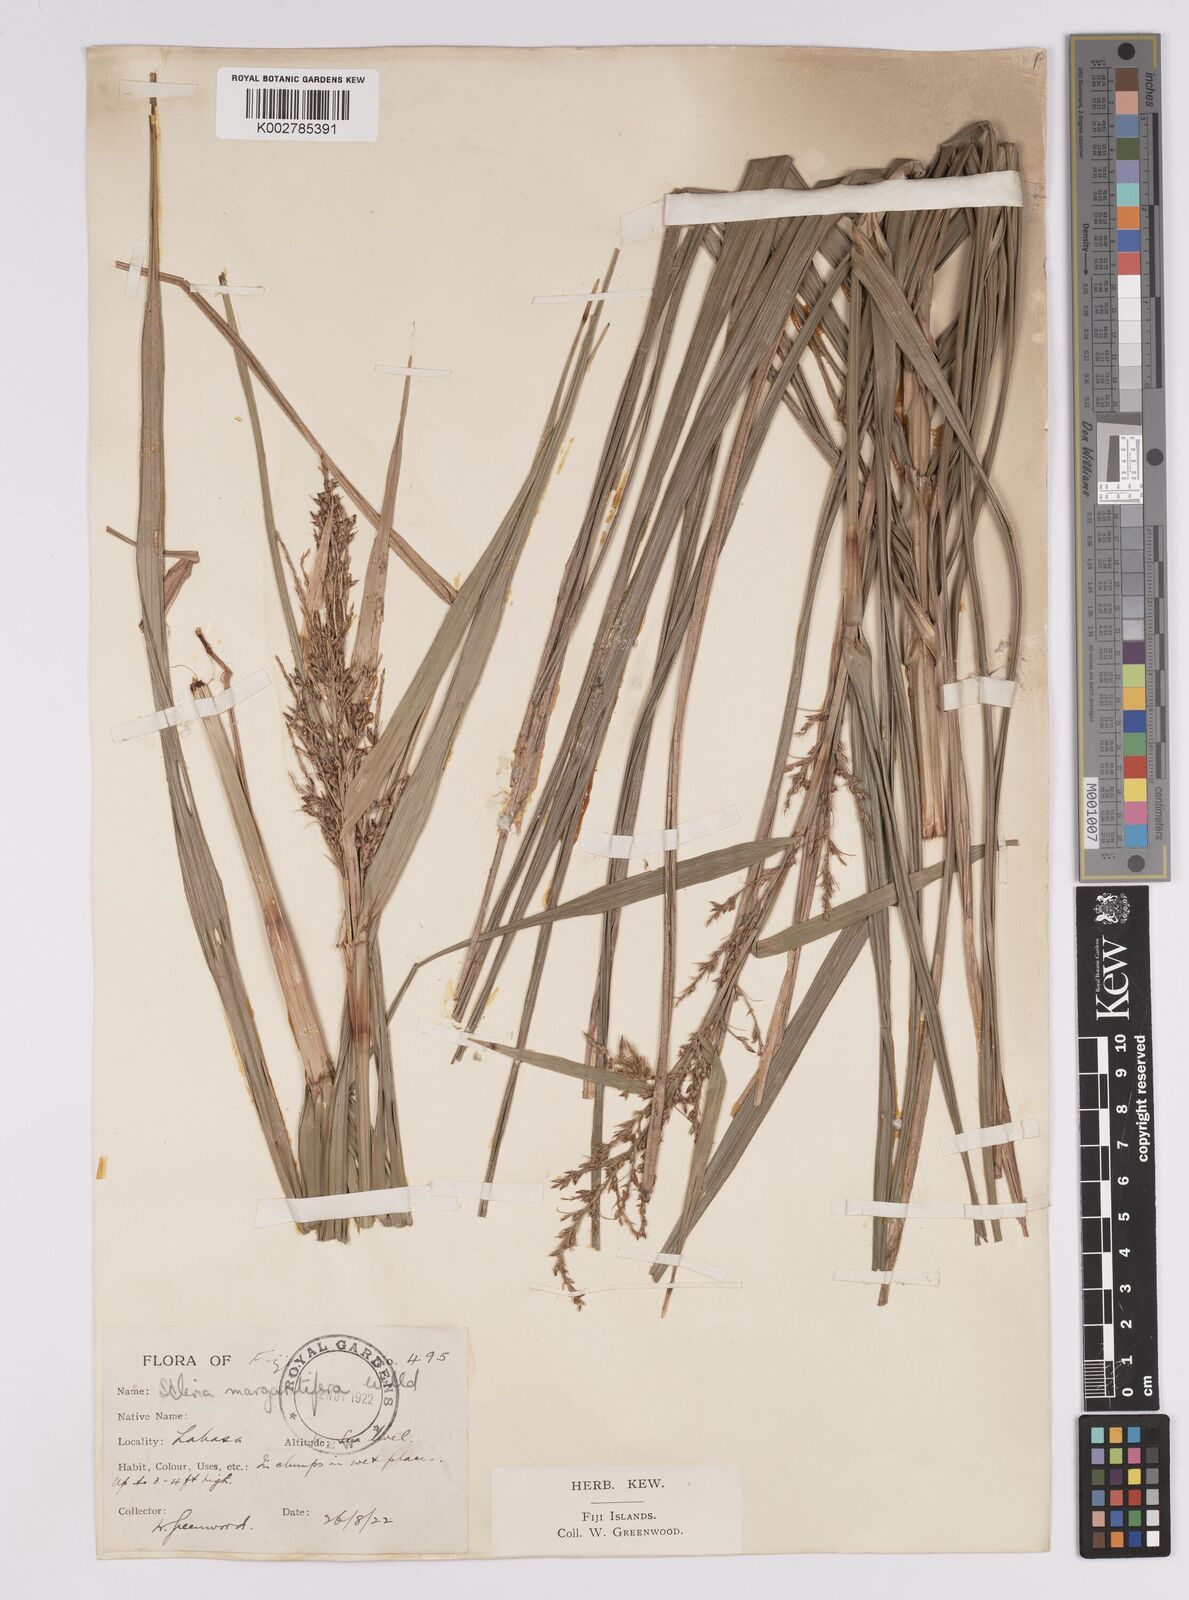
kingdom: Plantae
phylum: Tracheophyta
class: Liliopsida
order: Poales
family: Cyperaceae
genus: Scleria
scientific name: Scleria polycarpa
